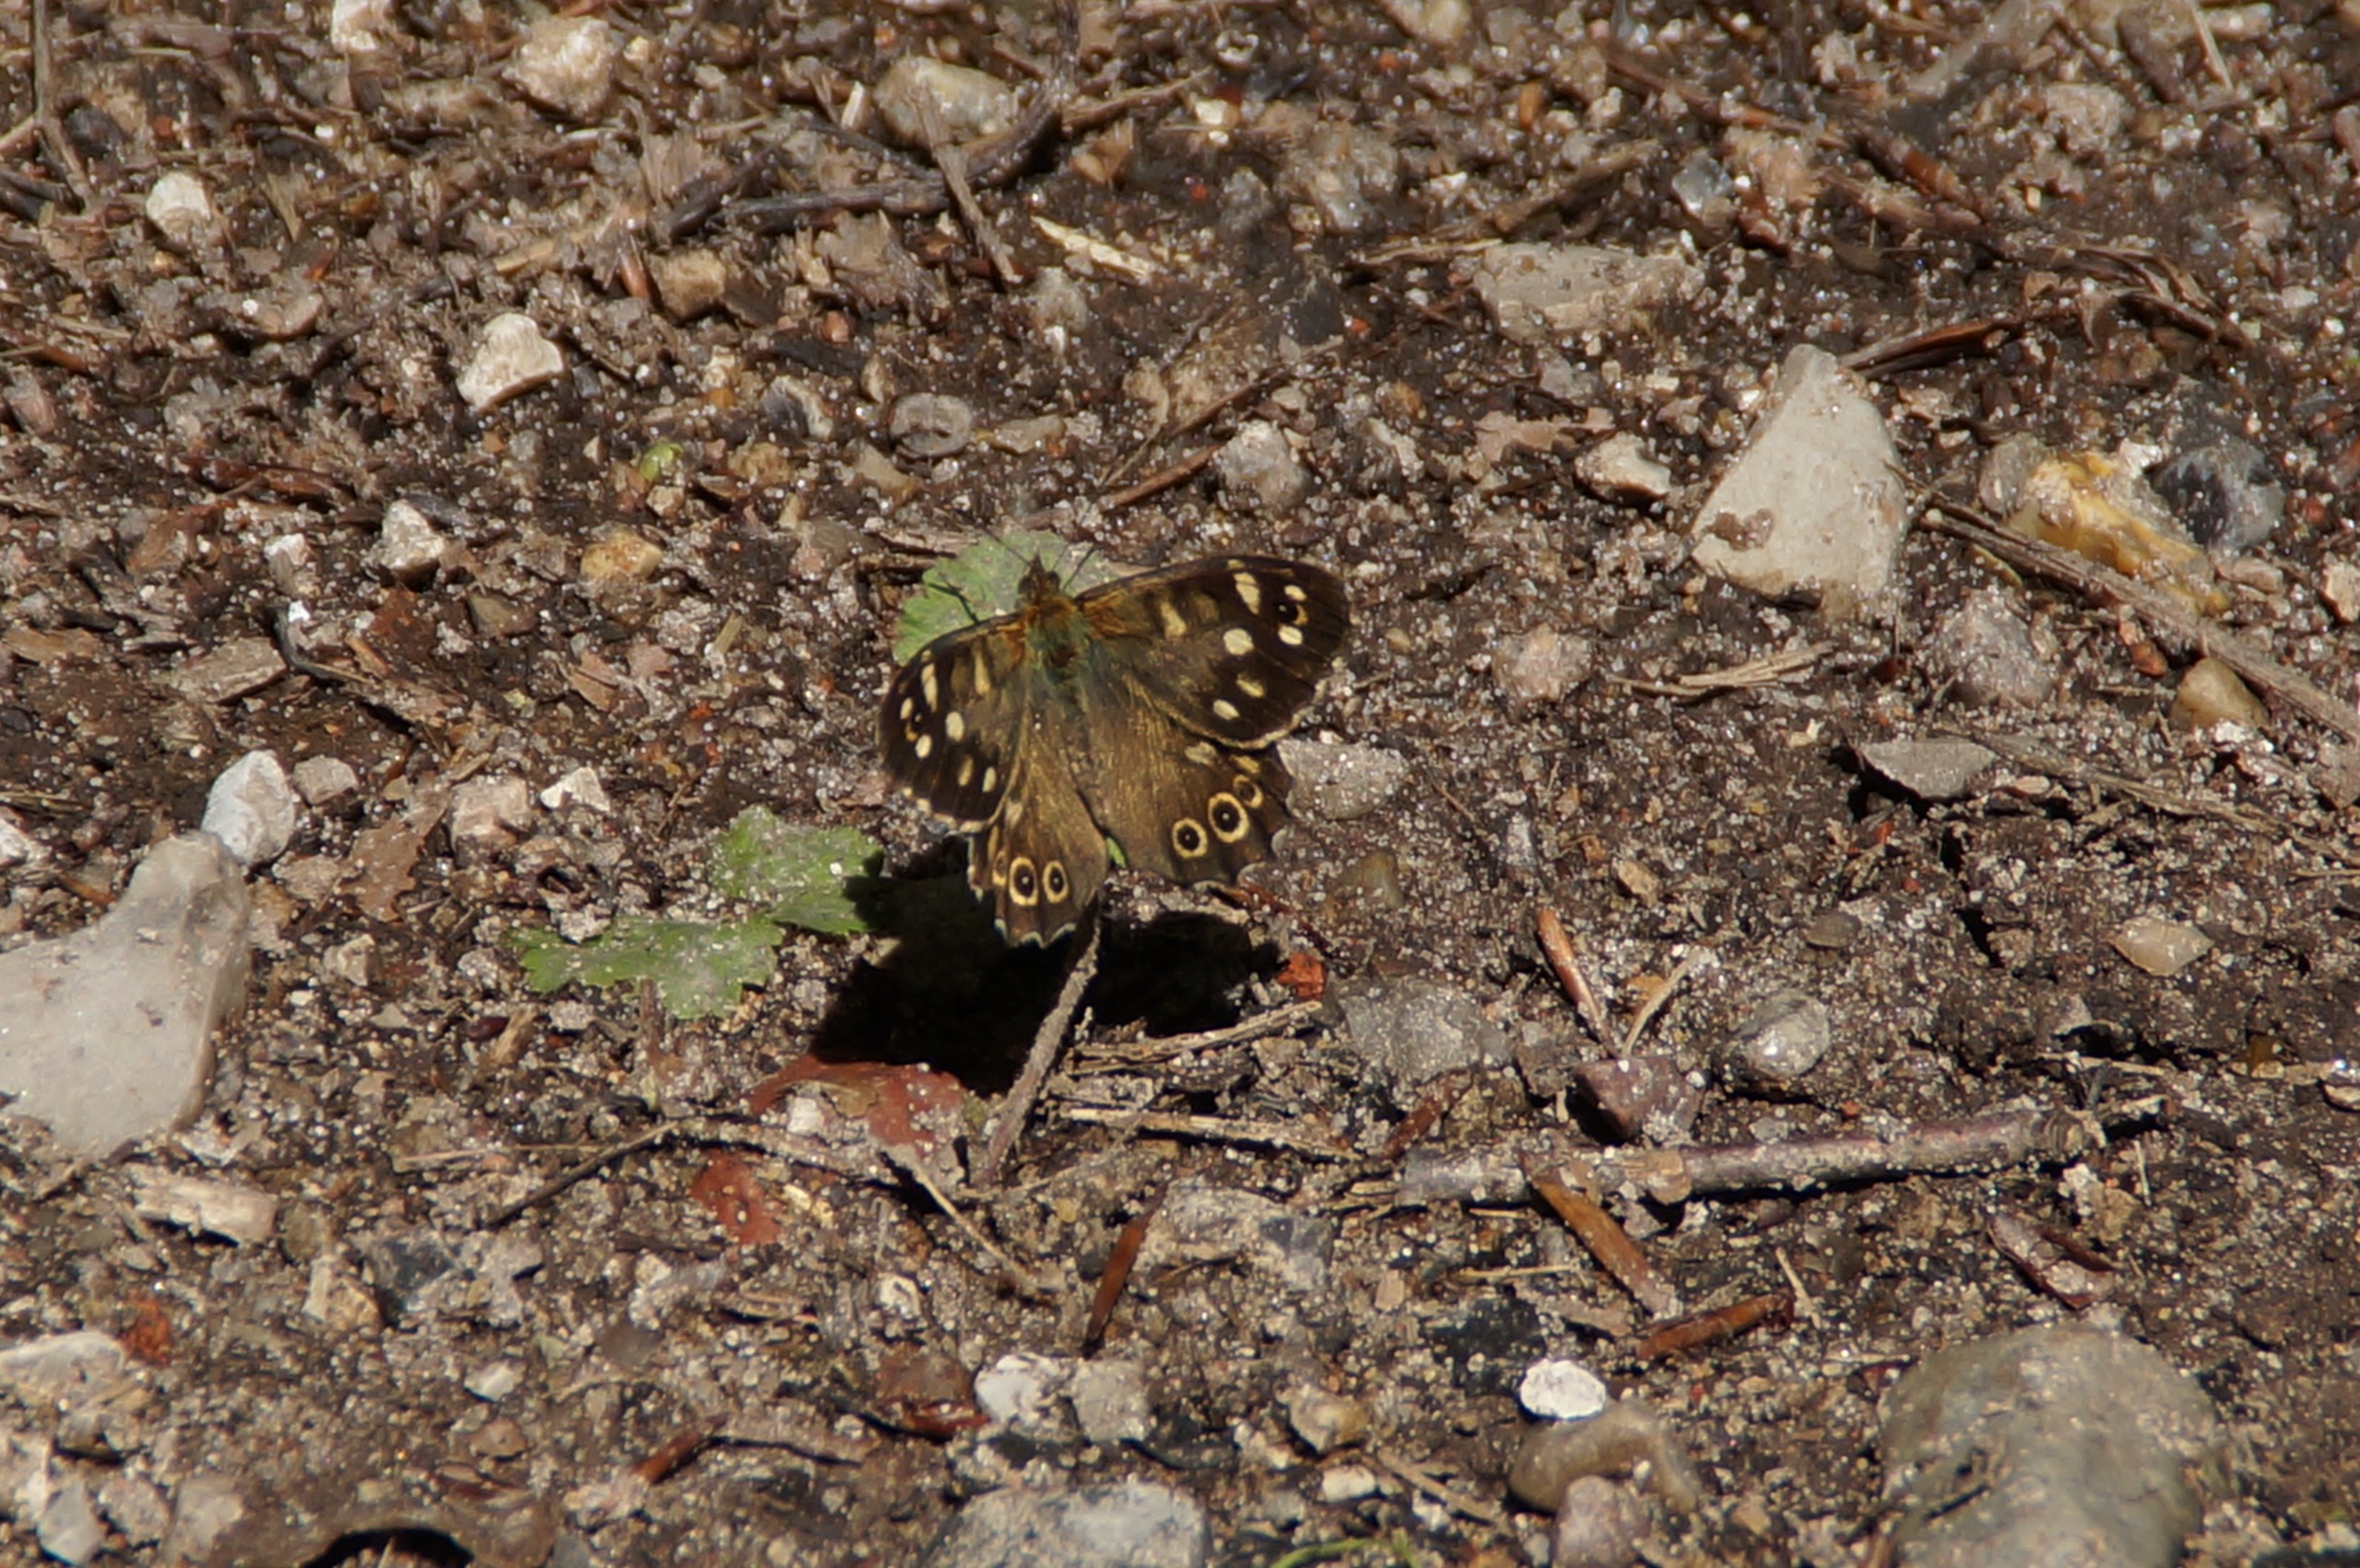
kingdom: Animalia
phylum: Arthropoda
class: Insecta
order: Lepidoptera
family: Nymphalidae
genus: Pararge
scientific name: Pararge aegeria
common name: Skovrandøje
